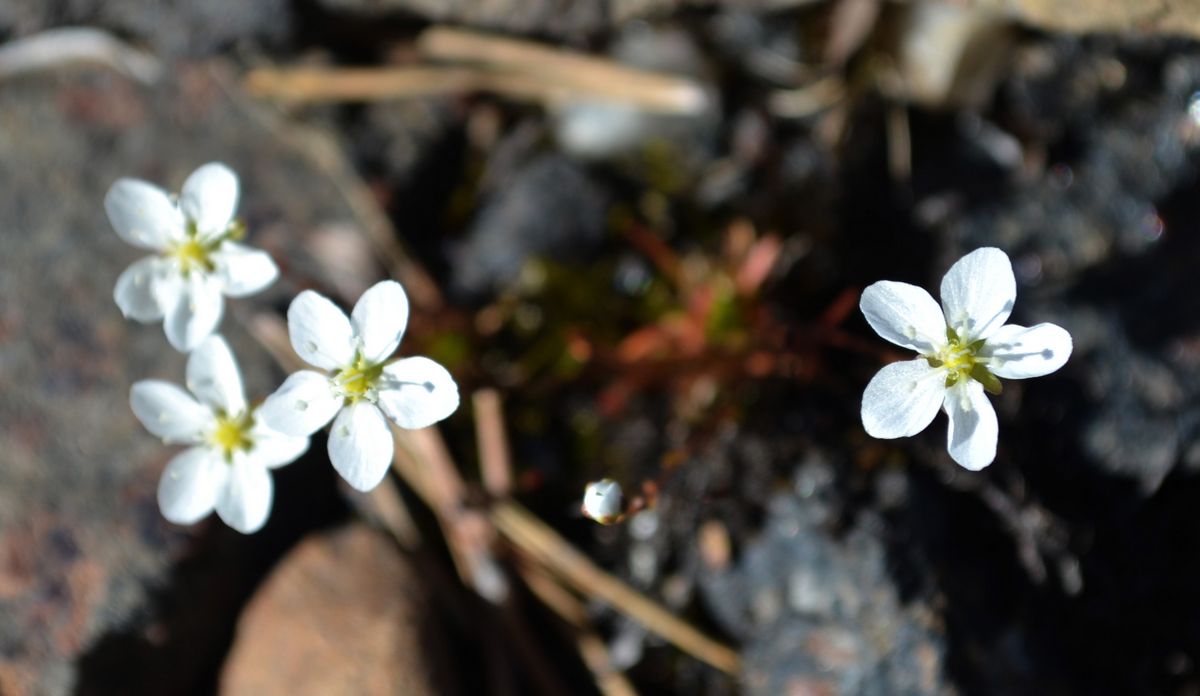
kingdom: Plantae
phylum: Tracheophyta
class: Magnoliopsida
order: Caryophyllales
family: Caryophyllaceae
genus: Sagina
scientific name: Sagina nodosa
